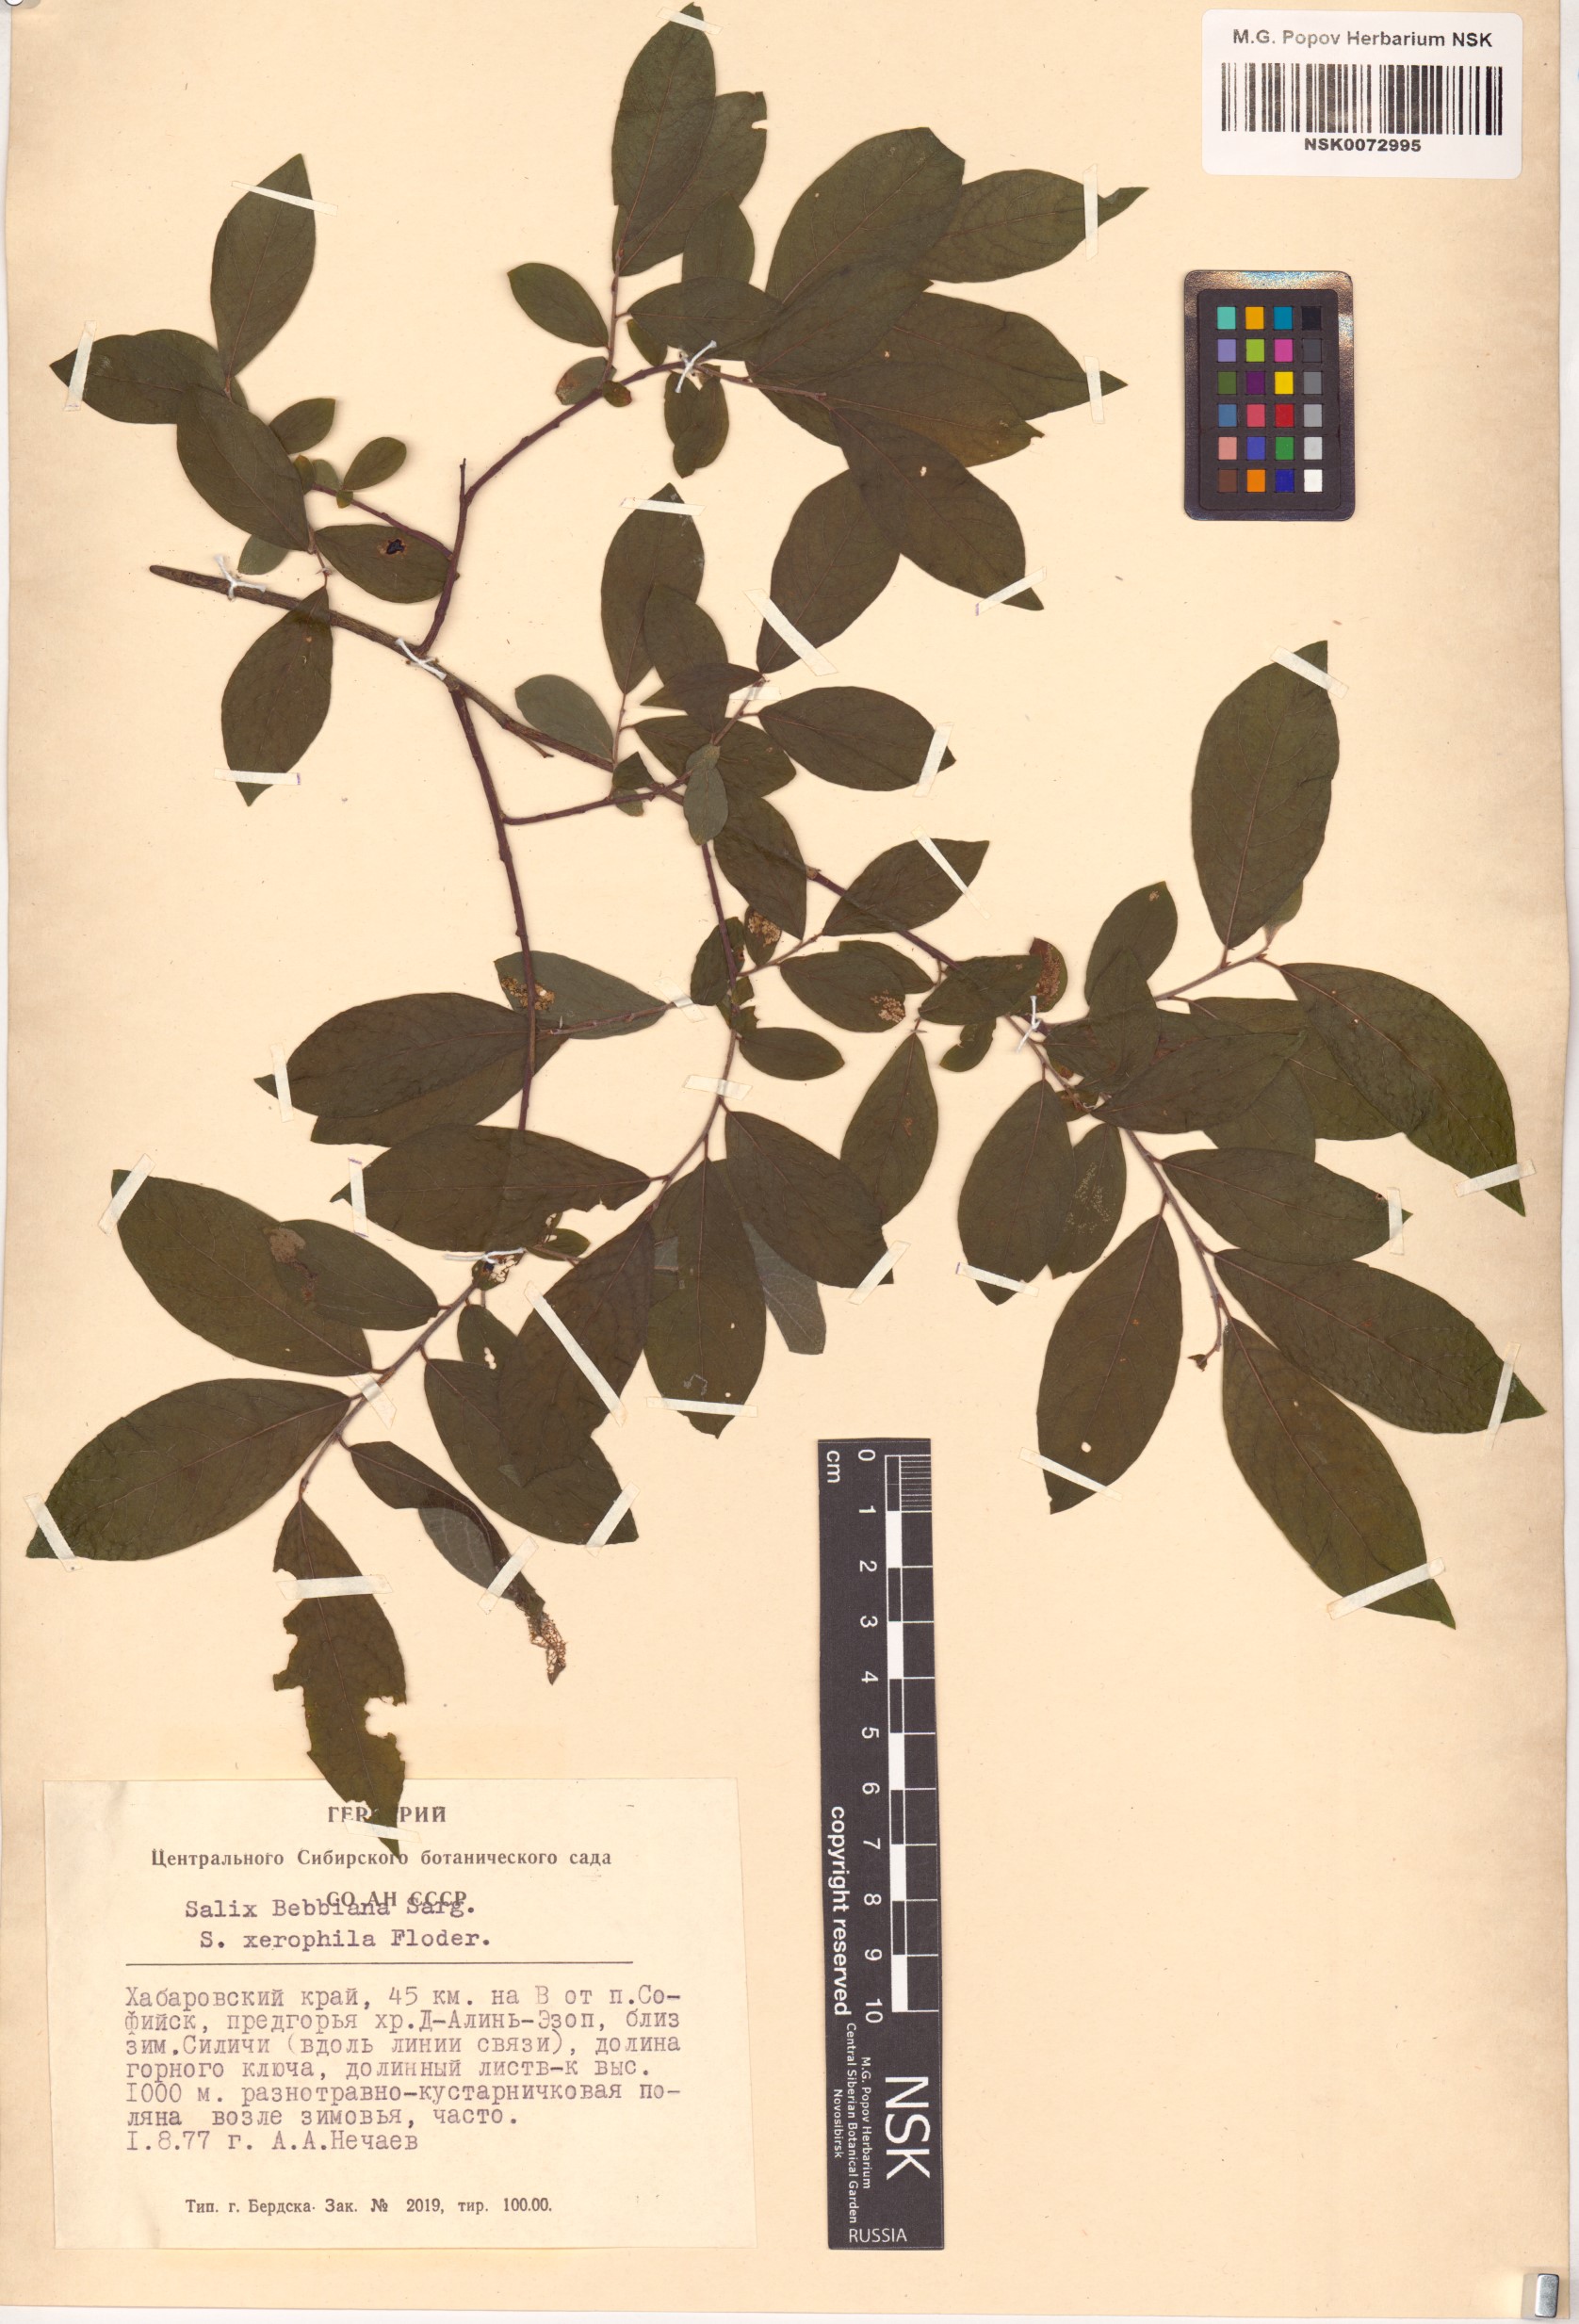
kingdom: Plantae
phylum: Tracheophyta
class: Magnoliopsida
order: Malpighiales
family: Salicaceae
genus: Salix
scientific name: Salix bebbiana
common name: Bebb's willow
